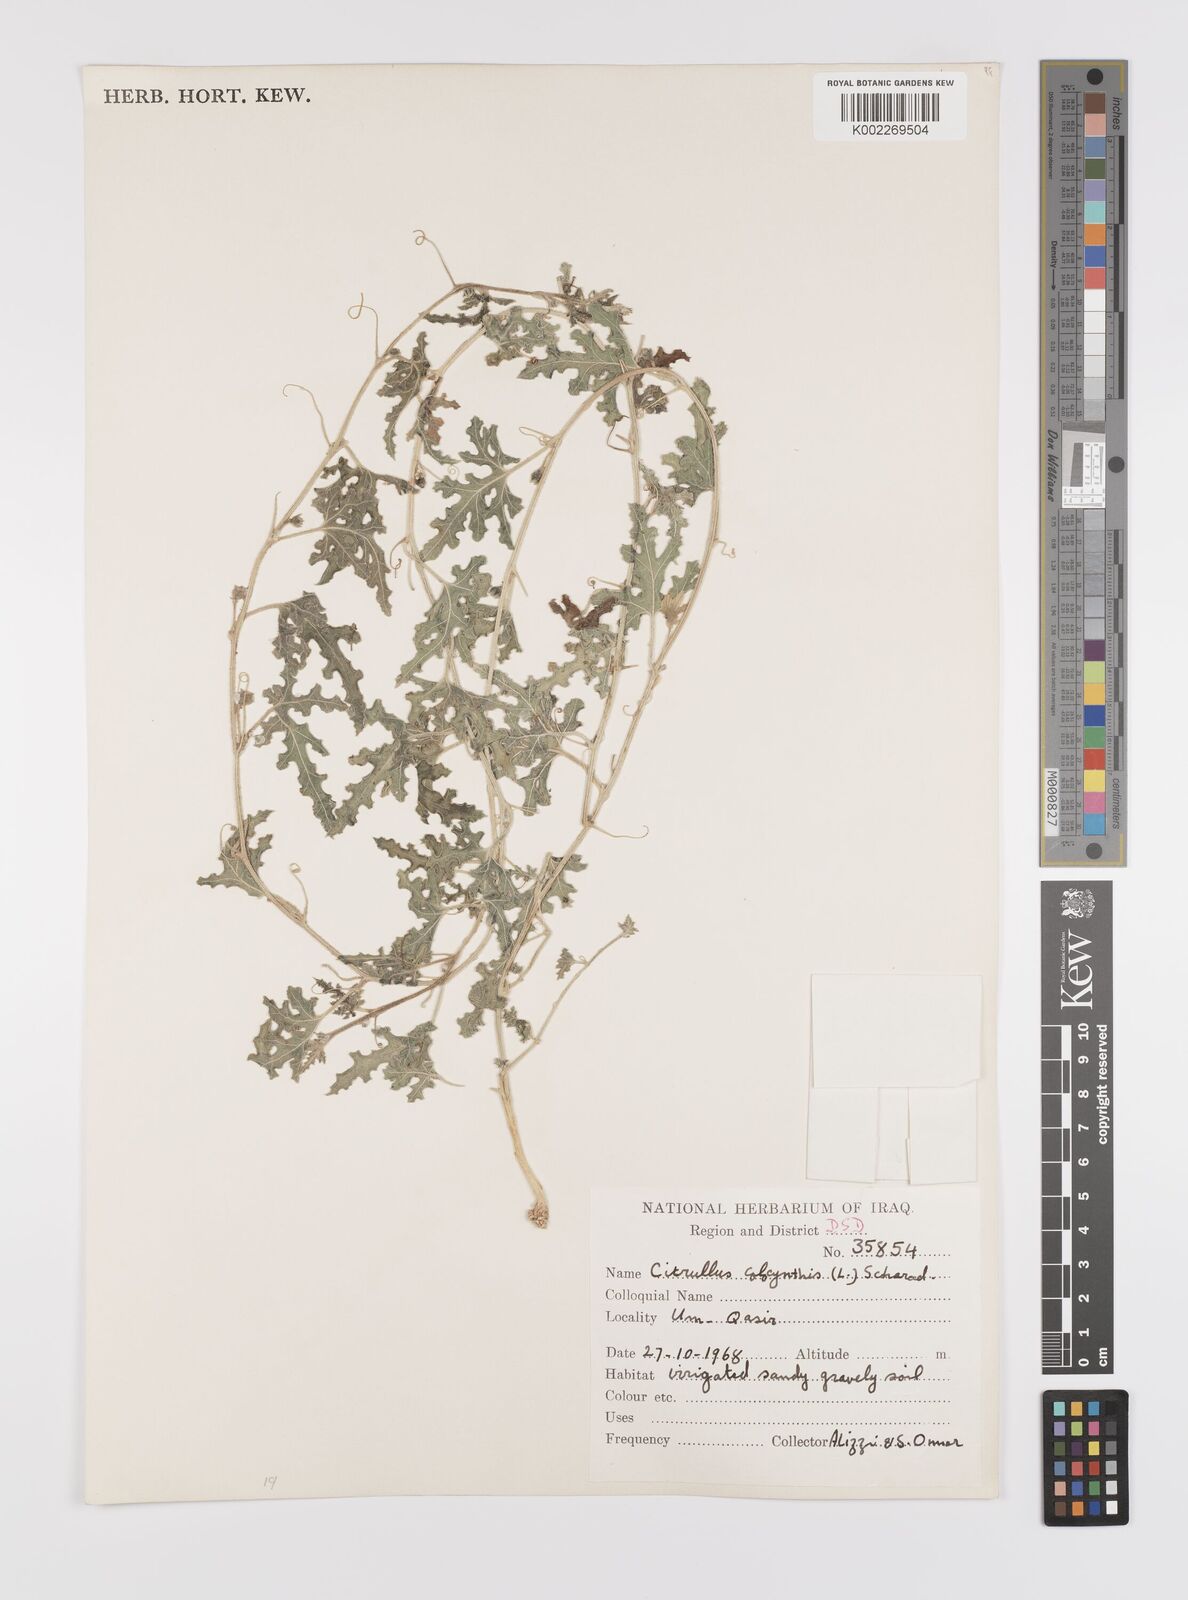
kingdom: Plantae
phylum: Tracheophyta
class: Magnoliopsida
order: Cucurbitales
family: Cucurbitaceae
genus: Citrullus
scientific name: Citrullus colocynthis
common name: Colocynth
